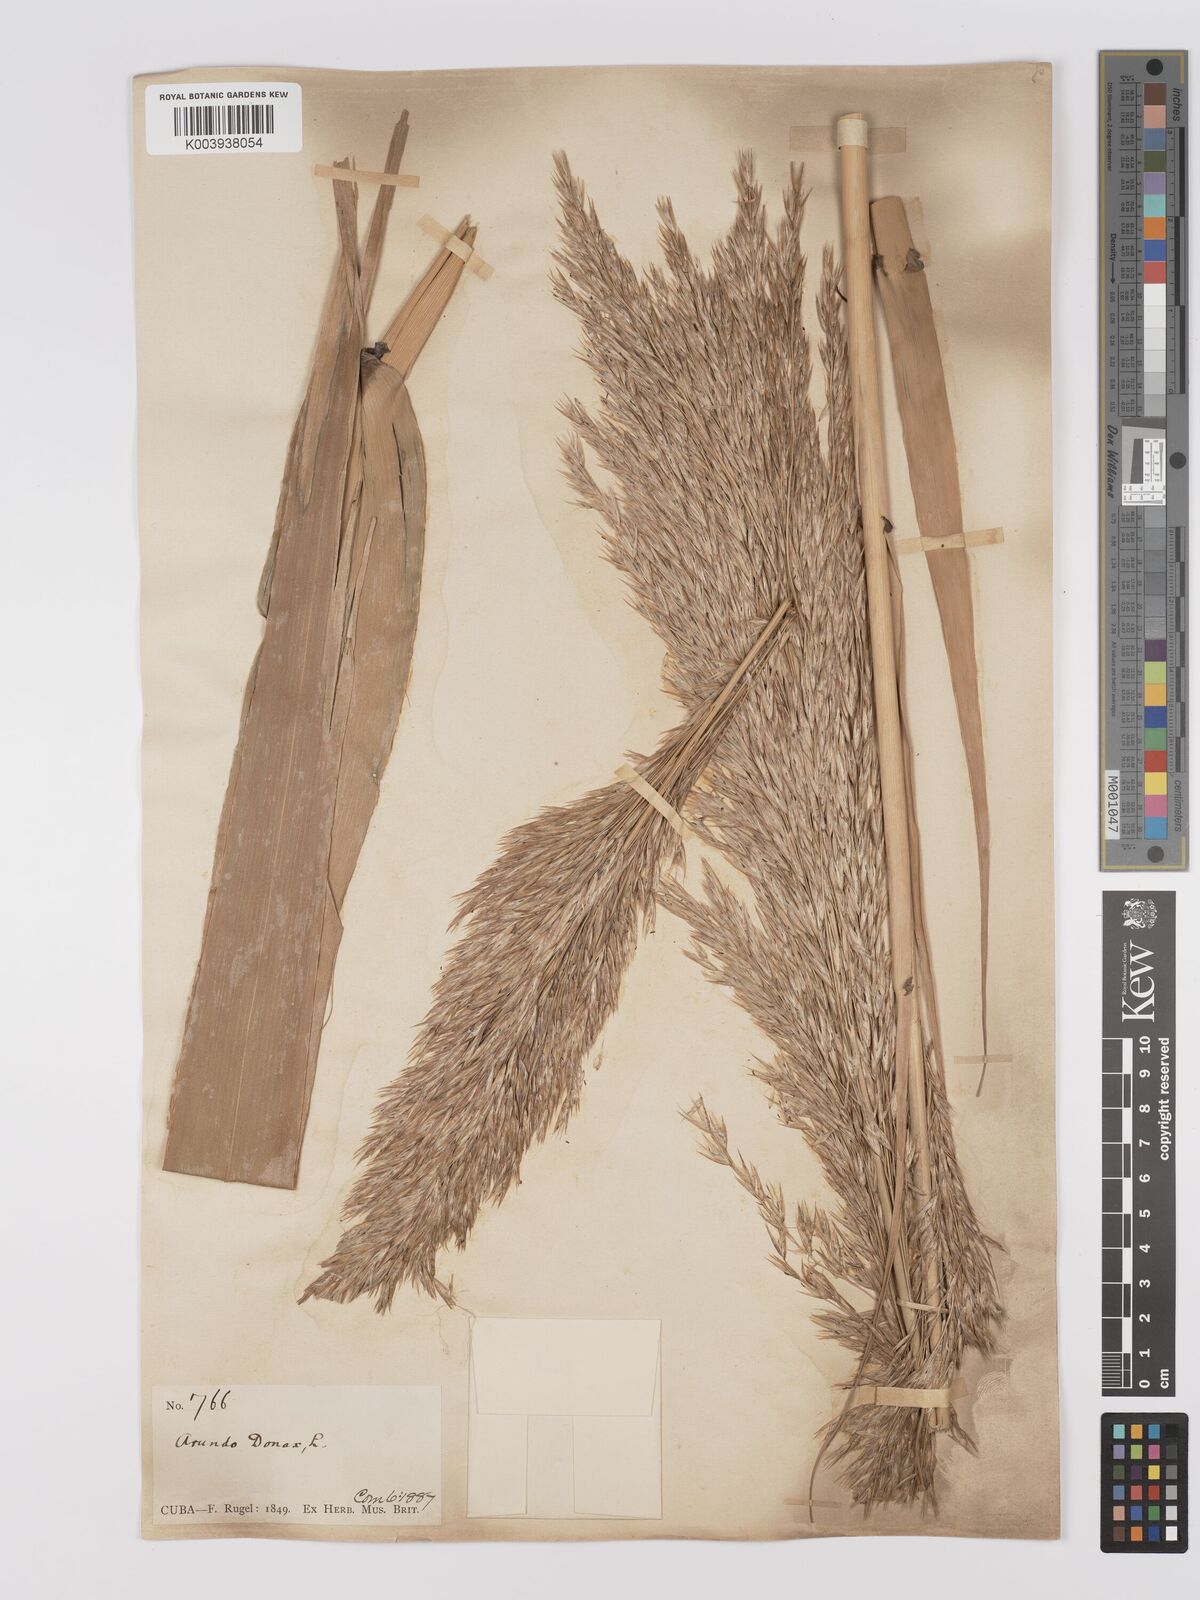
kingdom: Plantae
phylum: Tracheophyta
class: Liliopsida
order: Poales
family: Poaceae
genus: Arundo
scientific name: Arundo donax
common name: Giant reed
